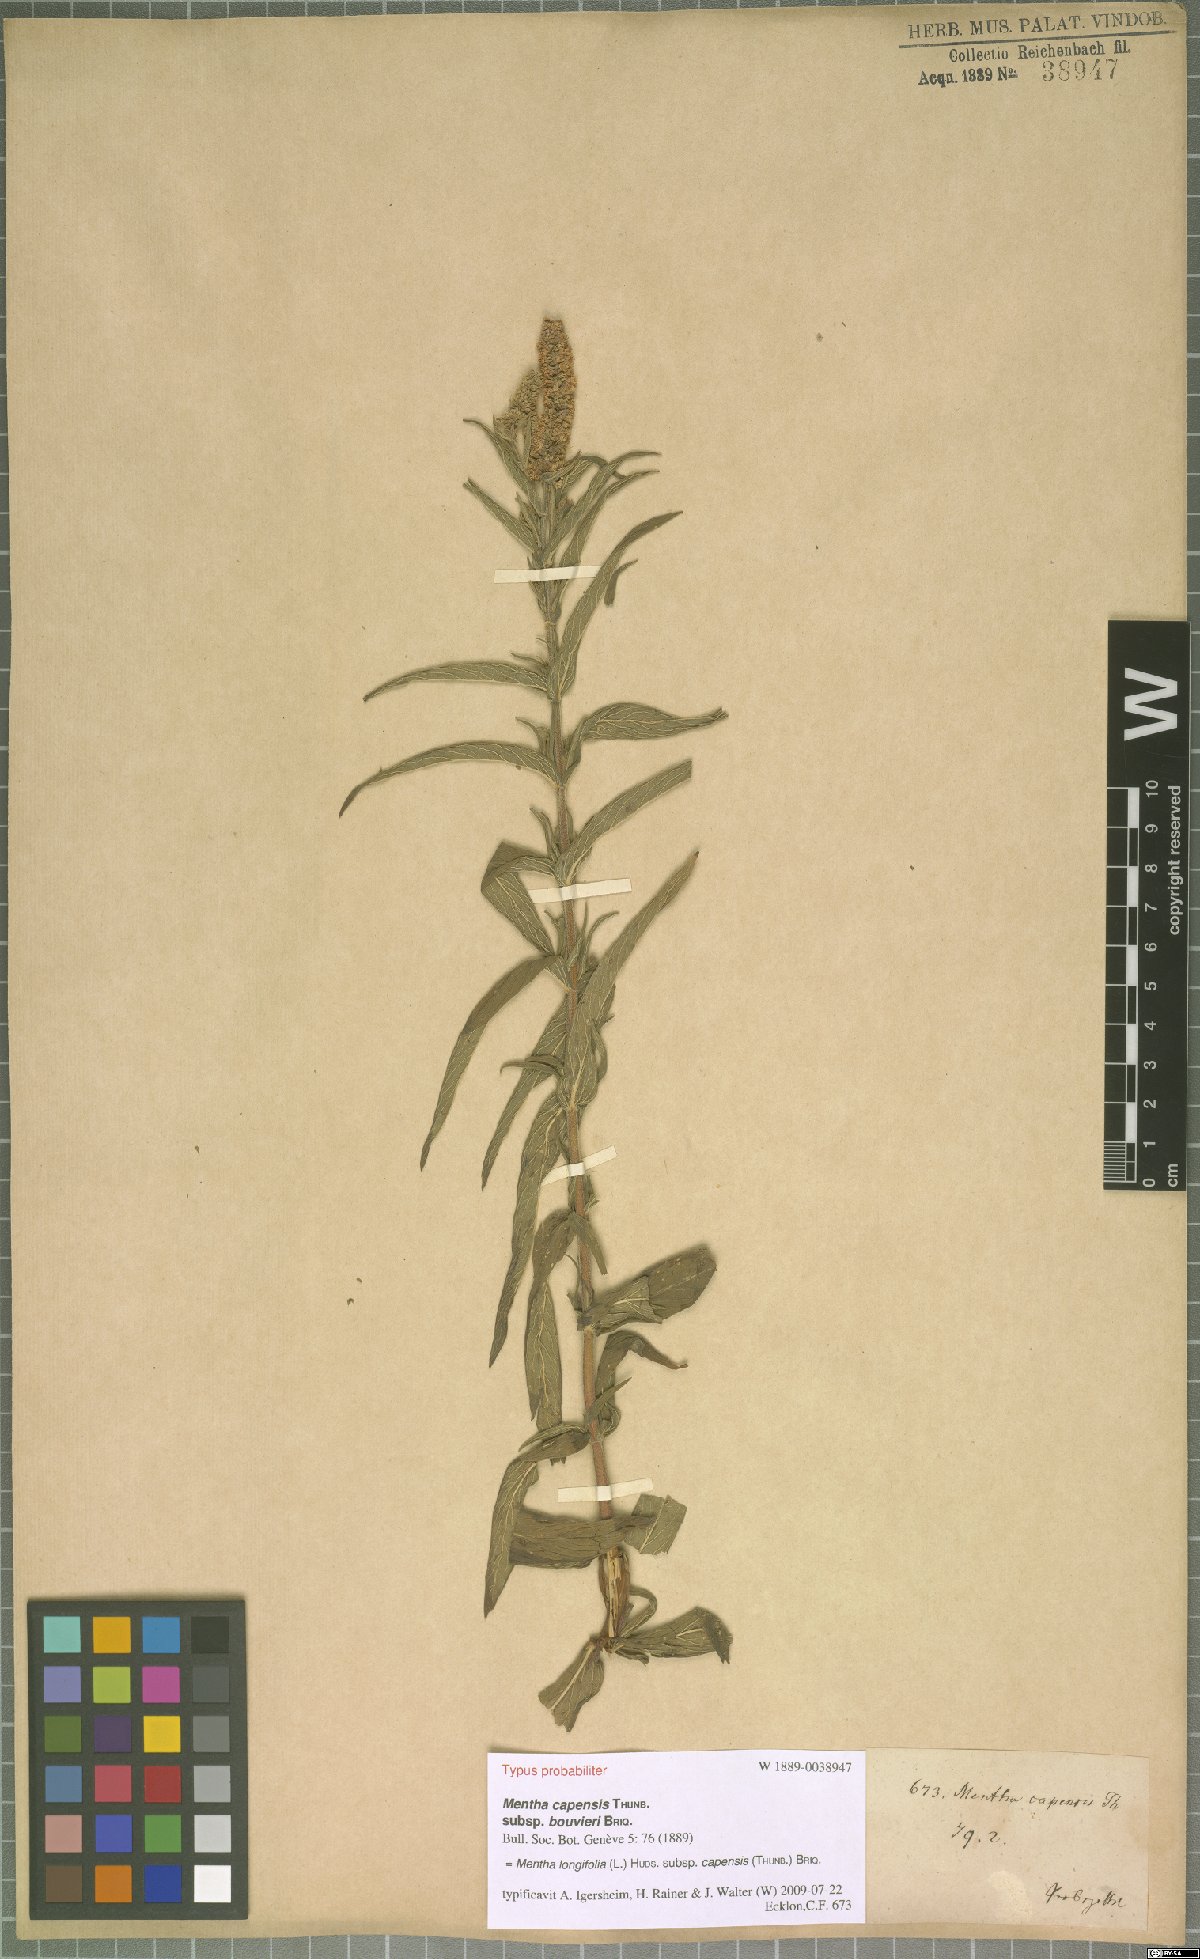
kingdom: Plantae
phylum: Tracheophyta
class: Magnoliopsida
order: Lamiales
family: Lamiaceae
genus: Mentha
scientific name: Mentha longifolia
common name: Horse mint
